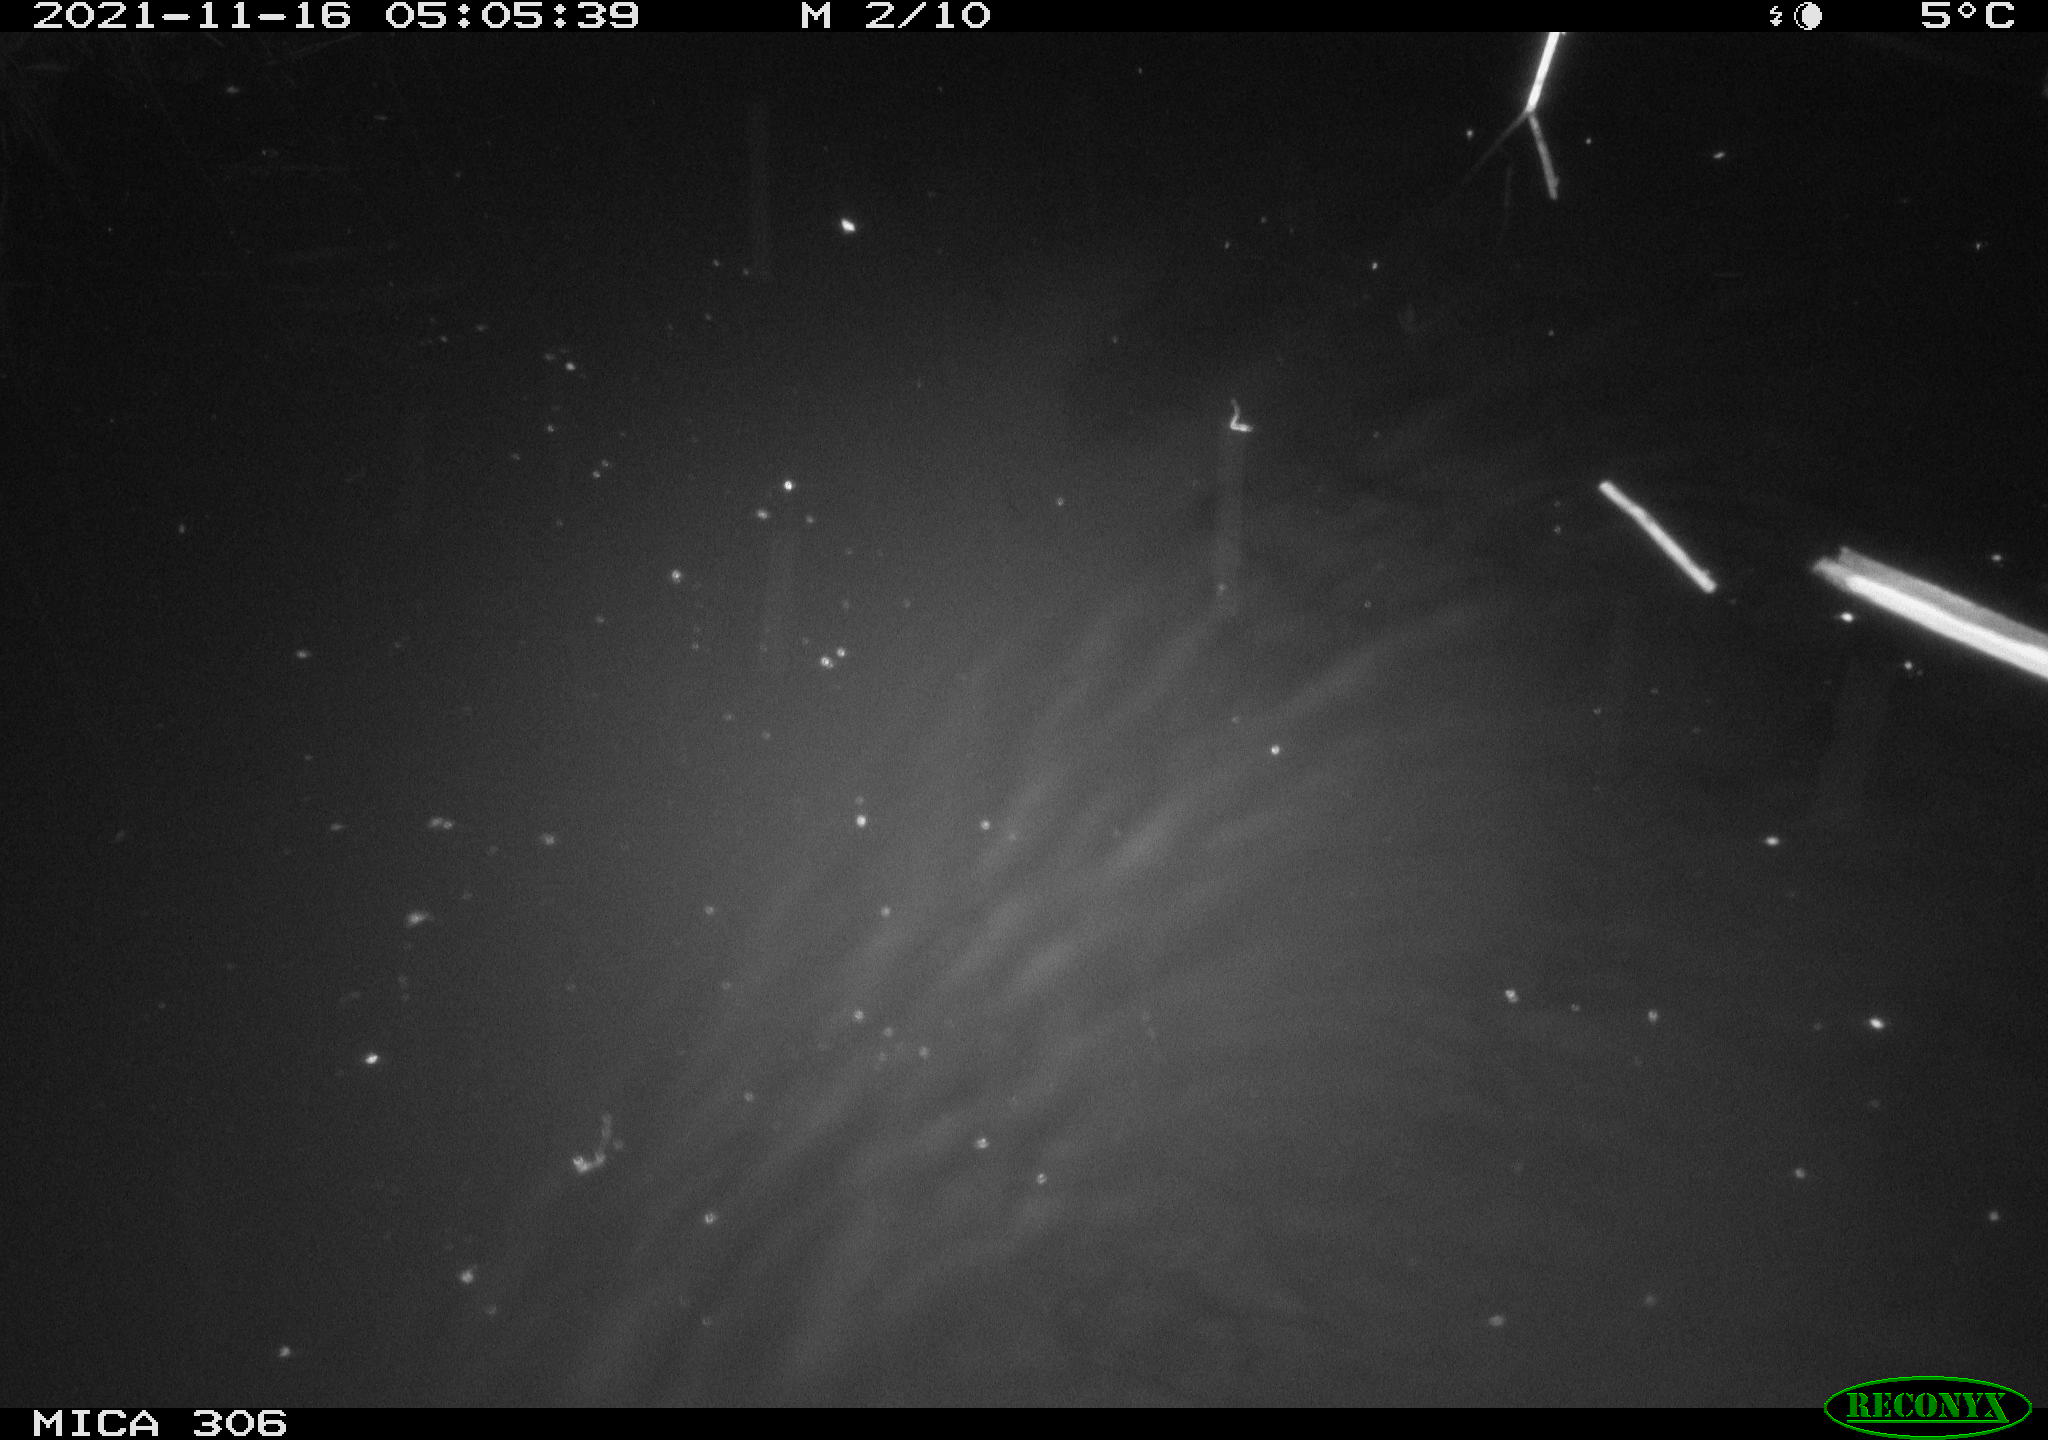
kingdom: Animalia
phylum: Chordata
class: Mammalia
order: Rodentia
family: Cricetidae
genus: Ondatra
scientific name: Ondatra zibethicus
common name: Muskrat
